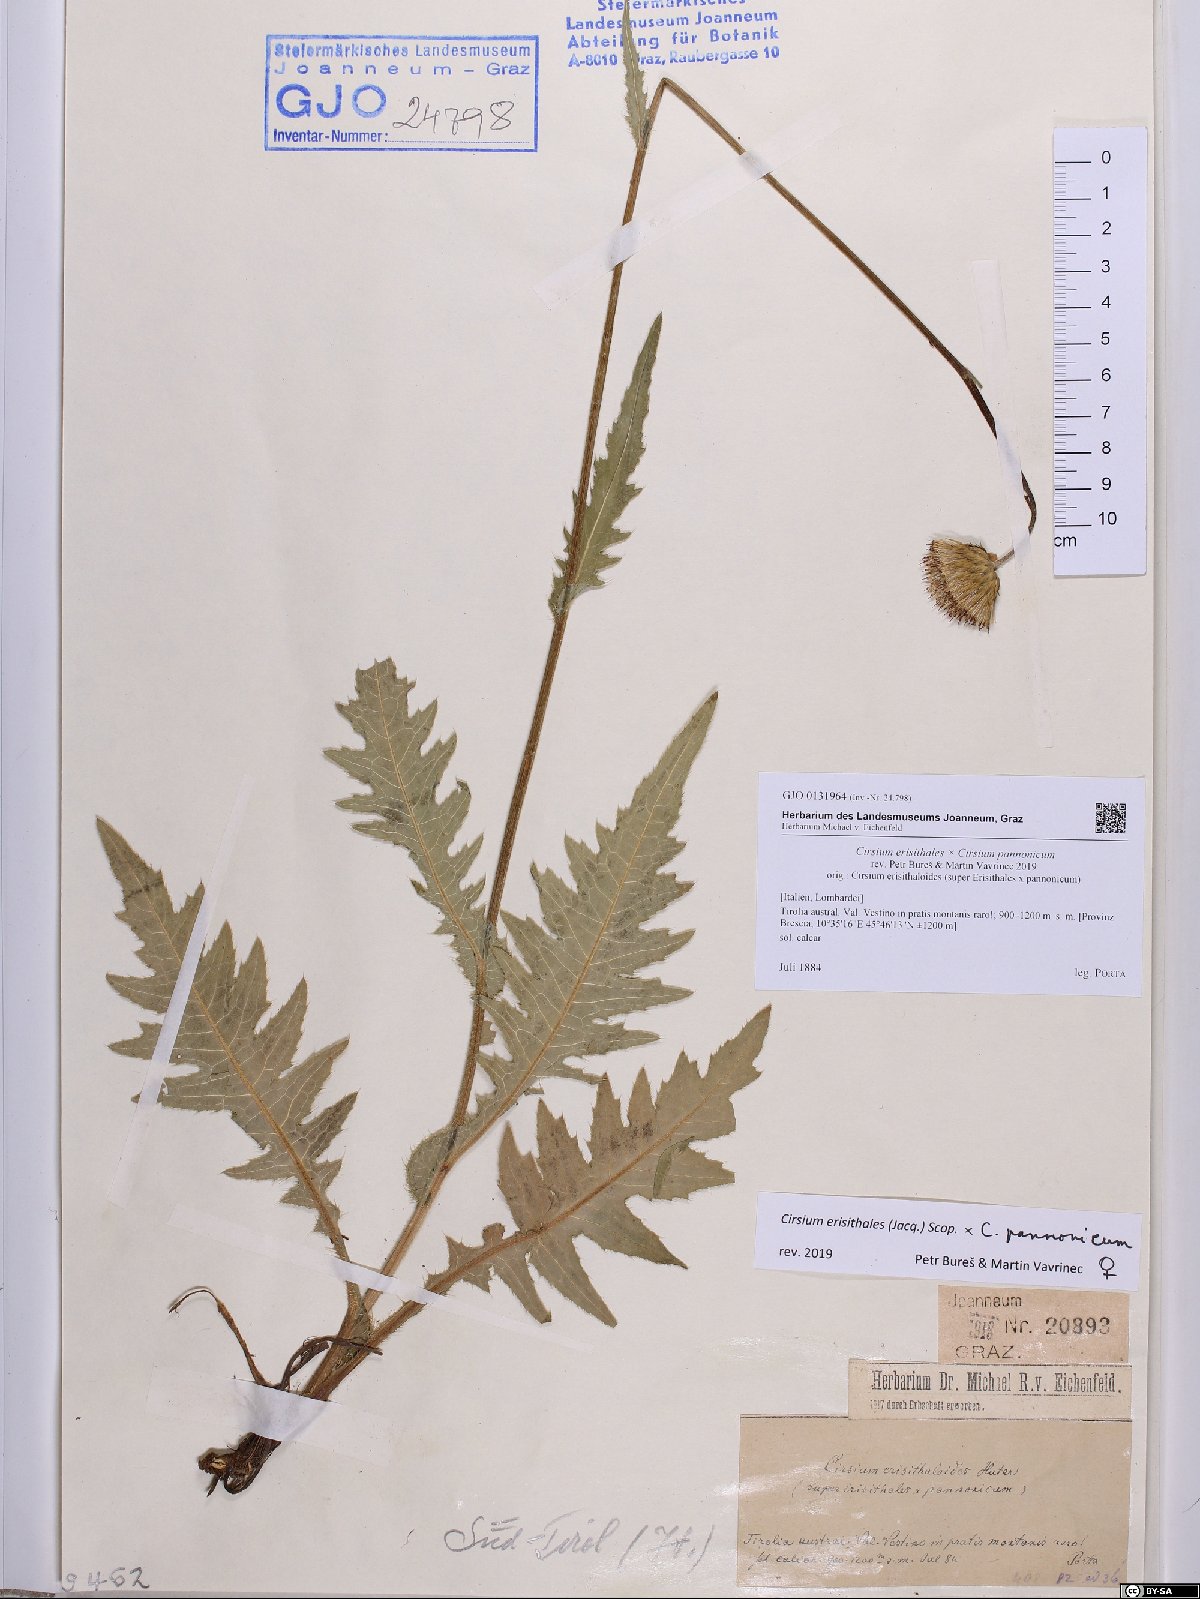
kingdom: Plantae
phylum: Tracheophyta
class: Magnoliopsida
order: Asterales
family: Asteraceae
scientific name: Asteraceae
